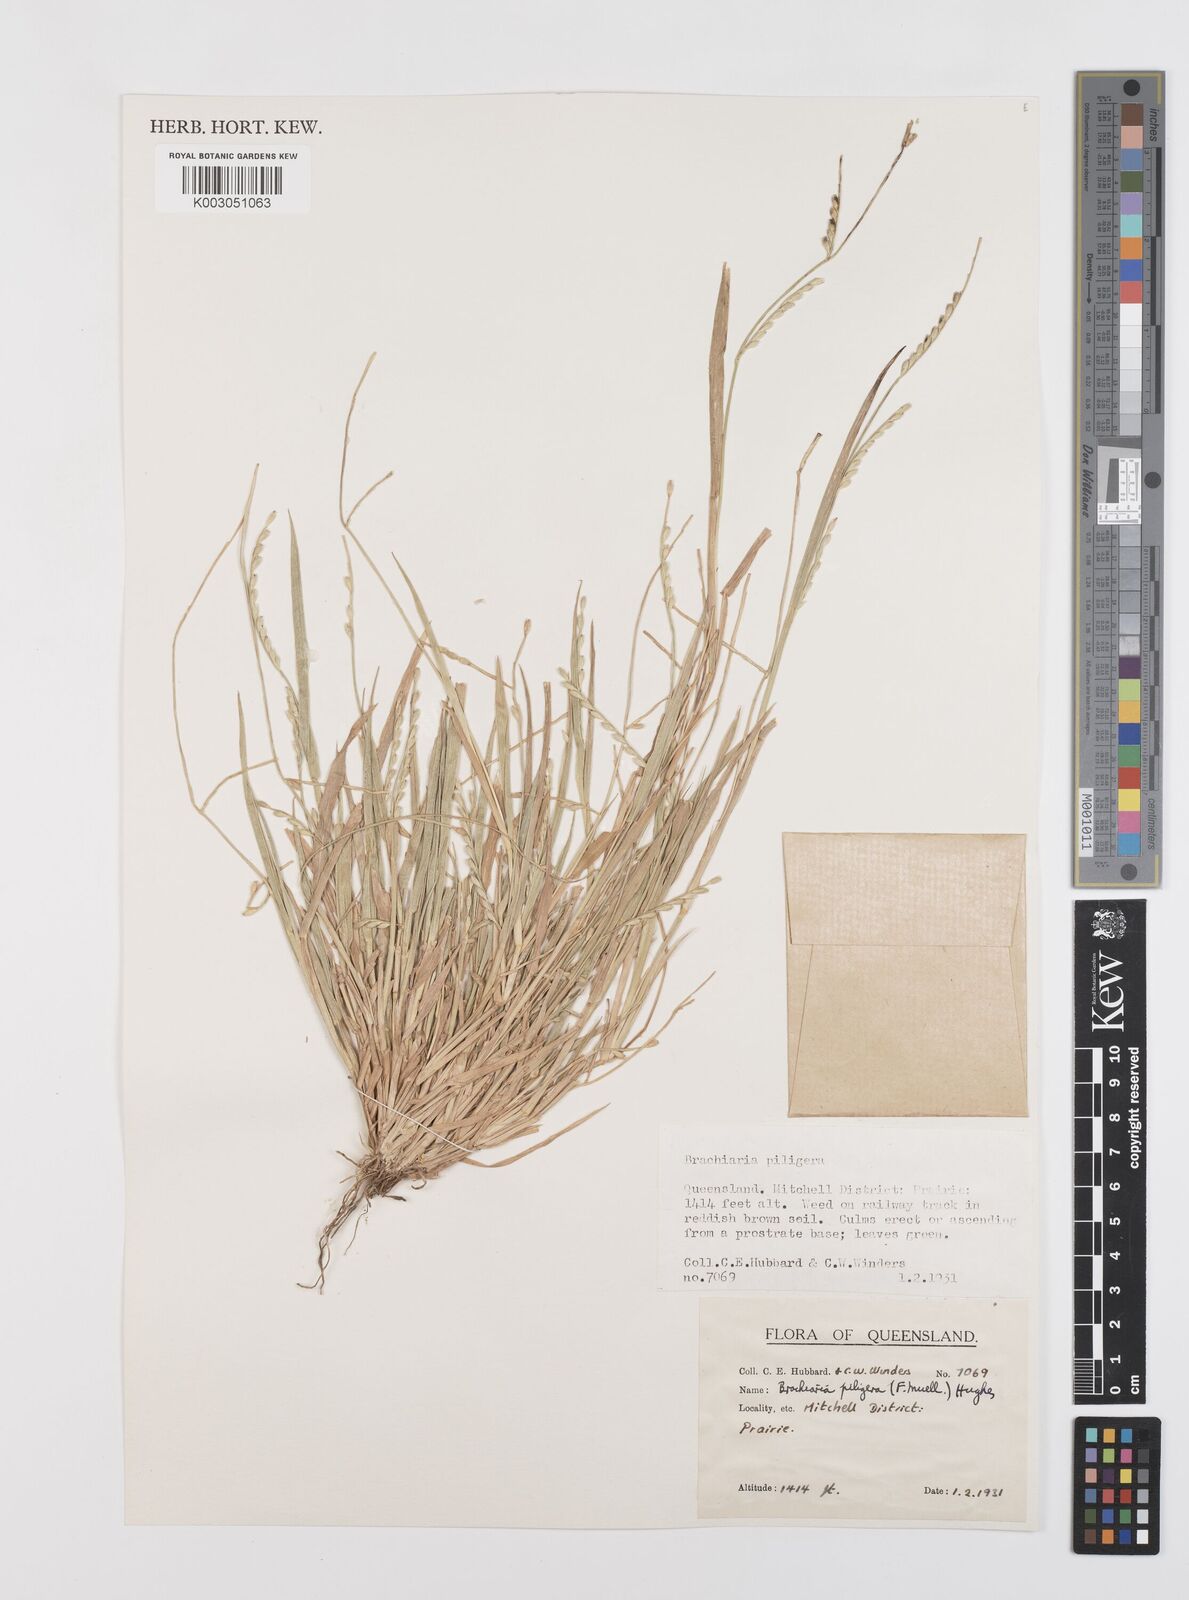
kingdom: Plantae
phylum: Tracheophyta
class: Liliopsida
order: Poales
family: Poaceae
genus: Urochloa
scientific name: Urochloa piligera
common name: Wattle signalgrass
